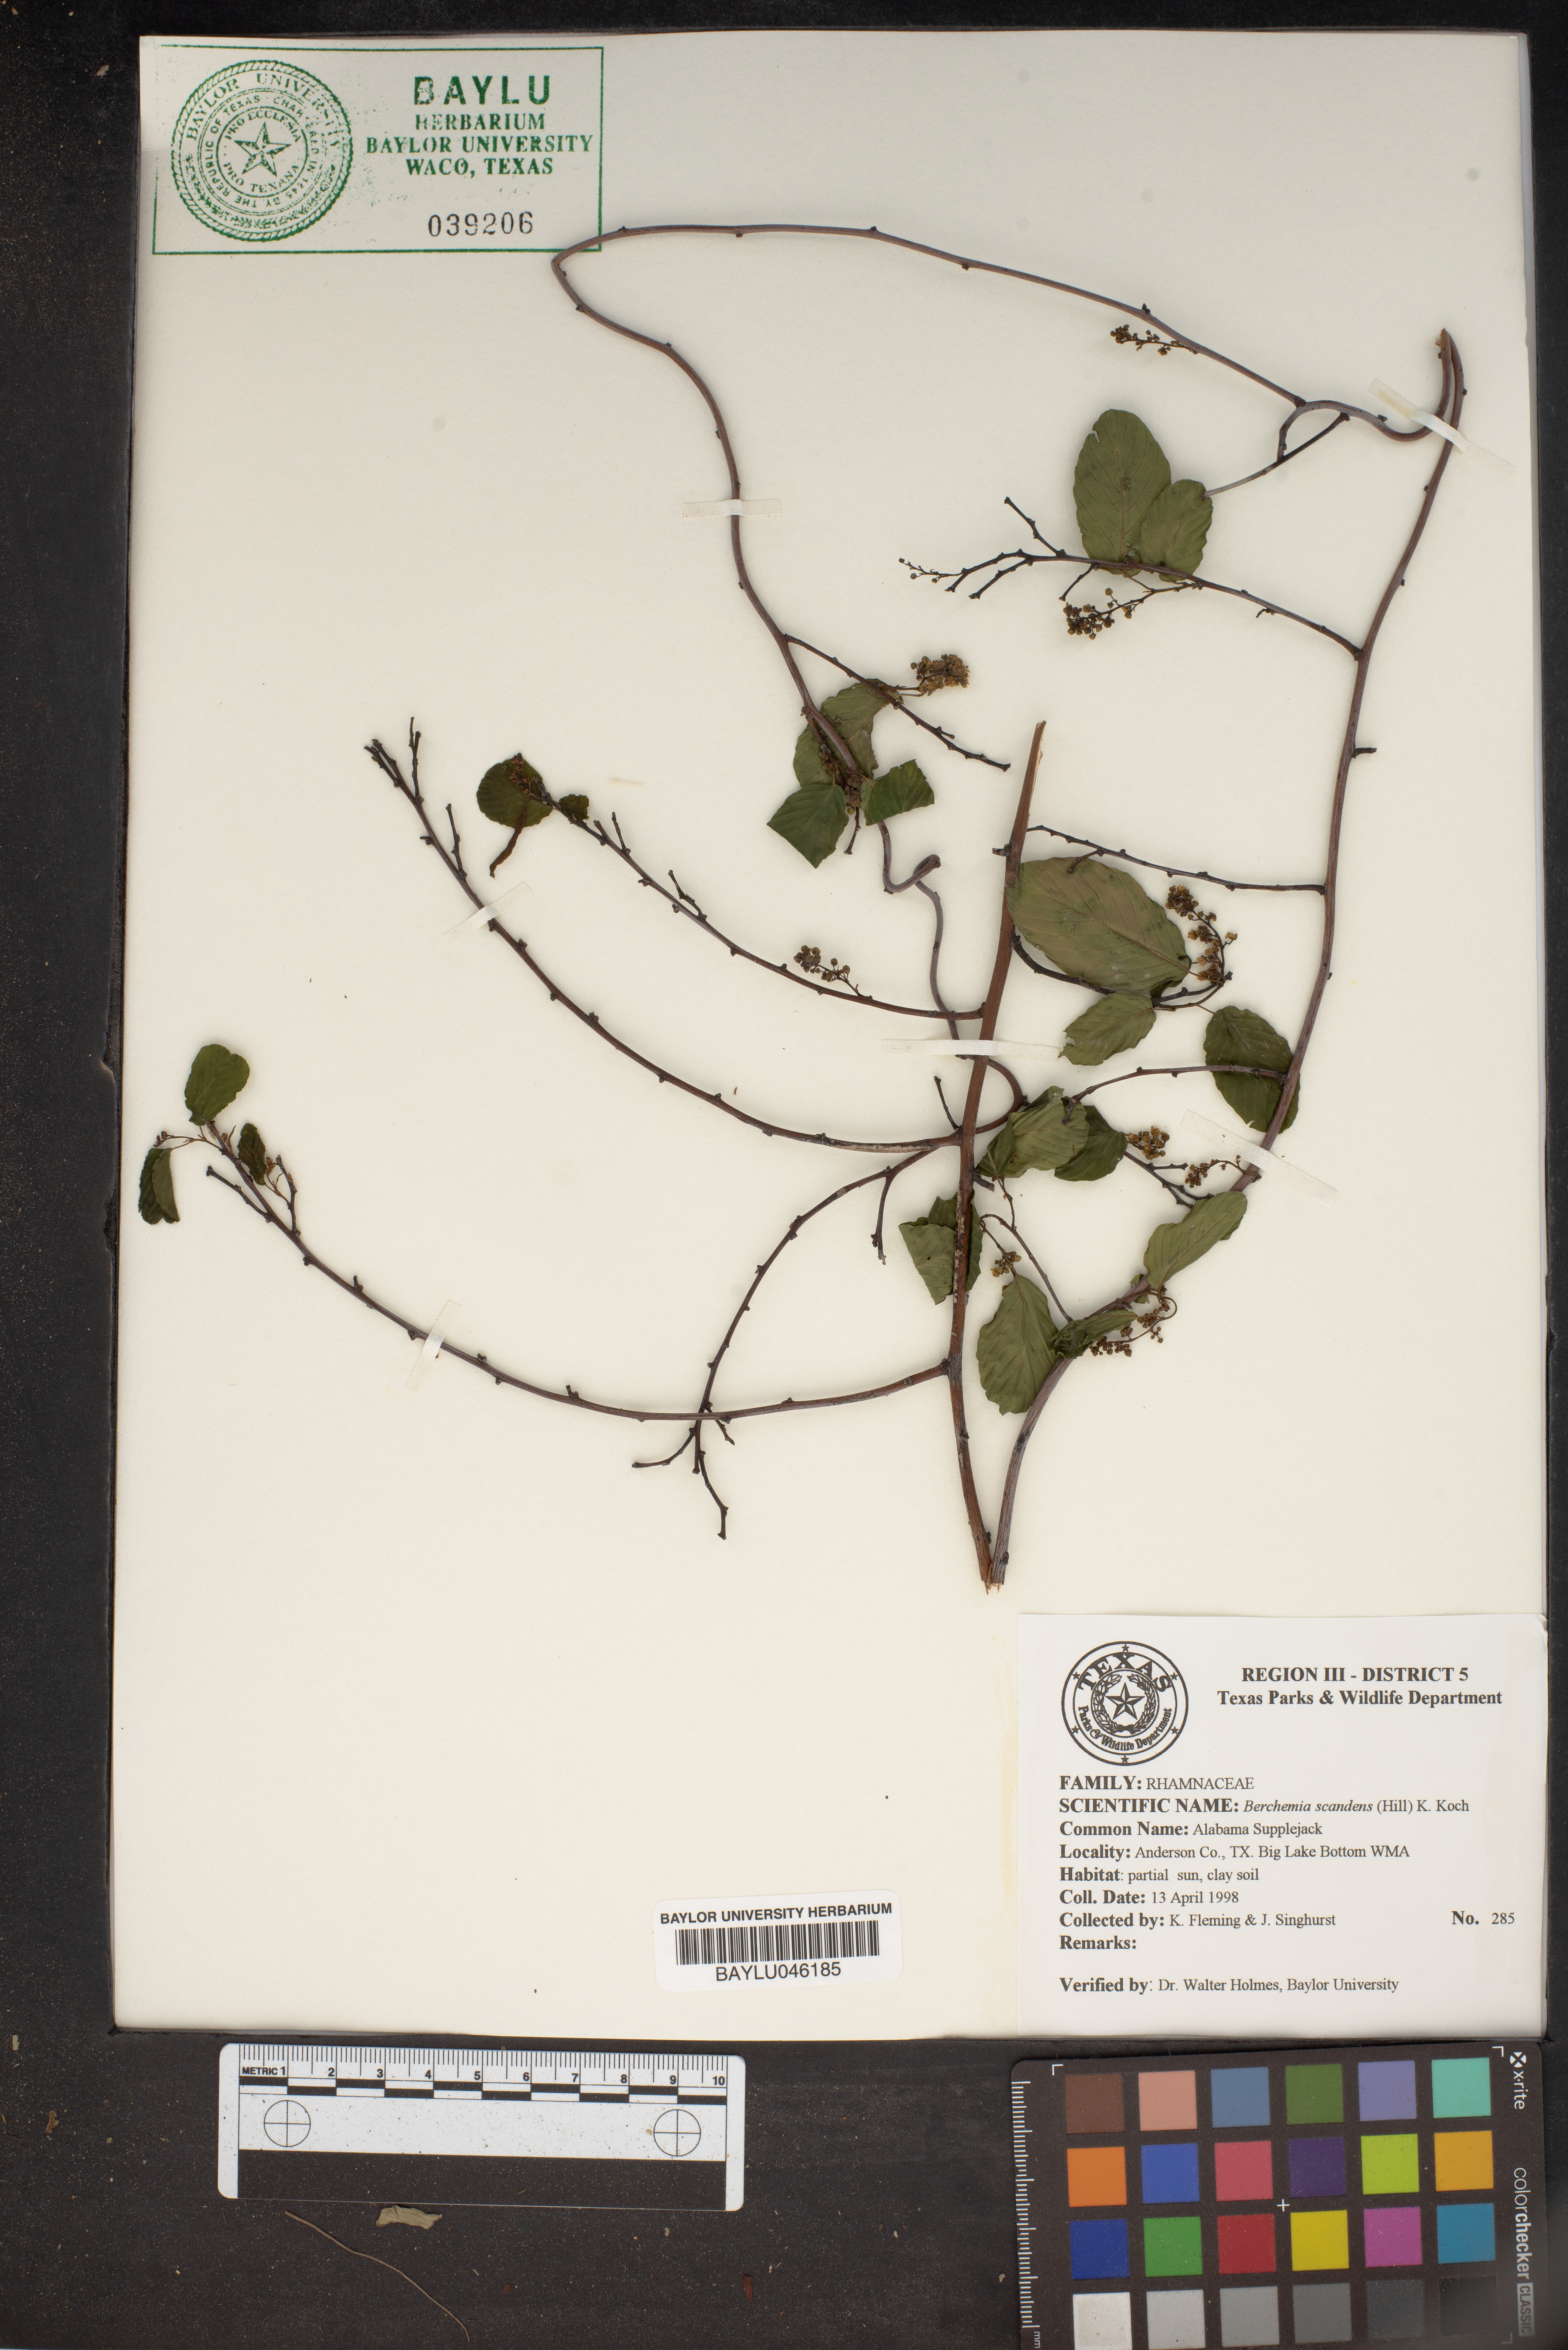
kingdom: Plantae
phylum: Tracheophyta
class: Magnoliopsida
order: Rosales
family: Rhamnaceae
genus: Berchemia
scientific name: Berchemia scandens
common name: Supplejack
